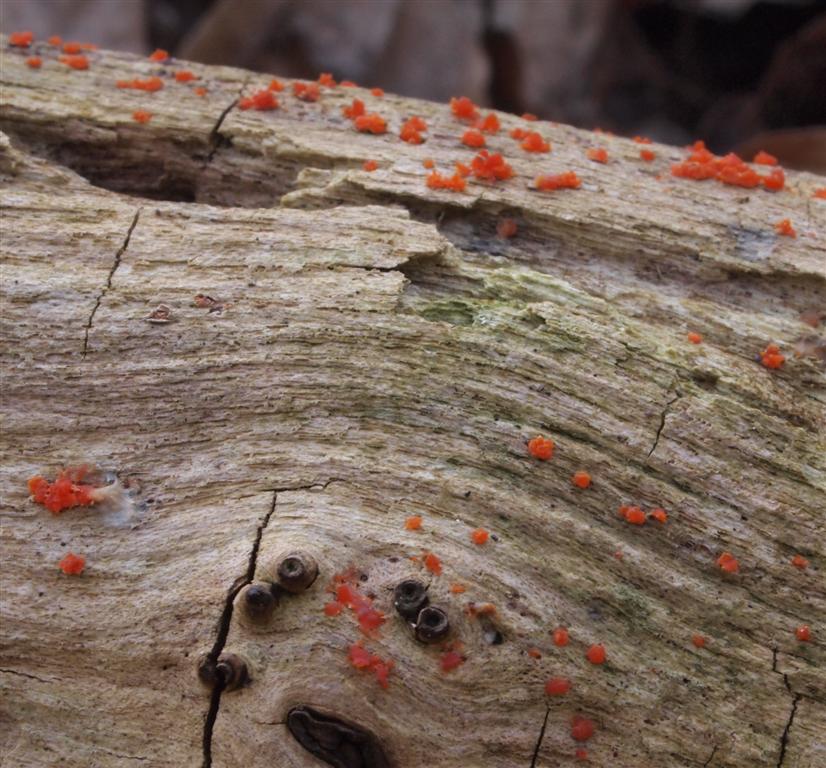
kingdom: Fungi
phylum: Basidiomycota
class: Dacrymycetes
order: Dacrymycetales
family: Dacrymycetaceae
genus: Dacrymyces
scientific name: Dacrymyces stillatus
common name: almindelig tåresvamp
